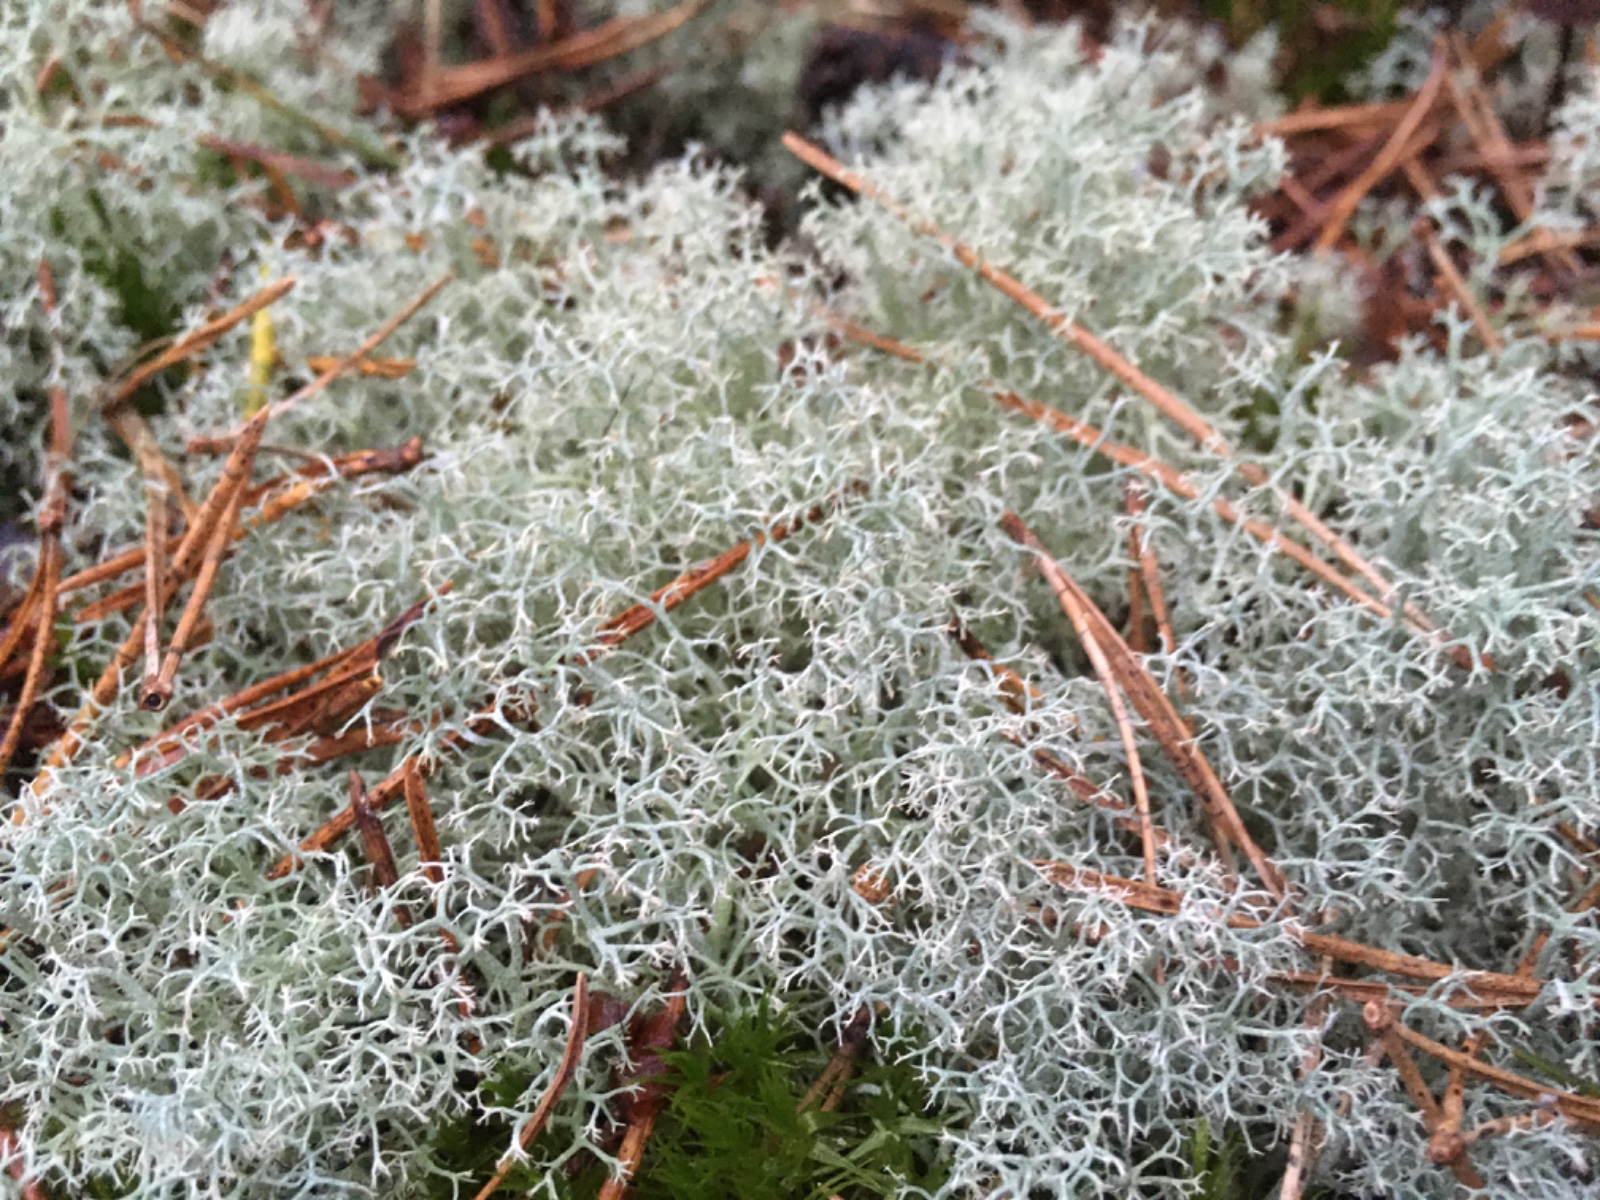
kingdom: Fungi
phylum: Ascomycota
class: Lecanoromycetes
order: Lecanorales
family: Cladoniaceae
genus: Cladonia
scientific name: Cladonia portentosa
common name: hede-rensdyrlav
